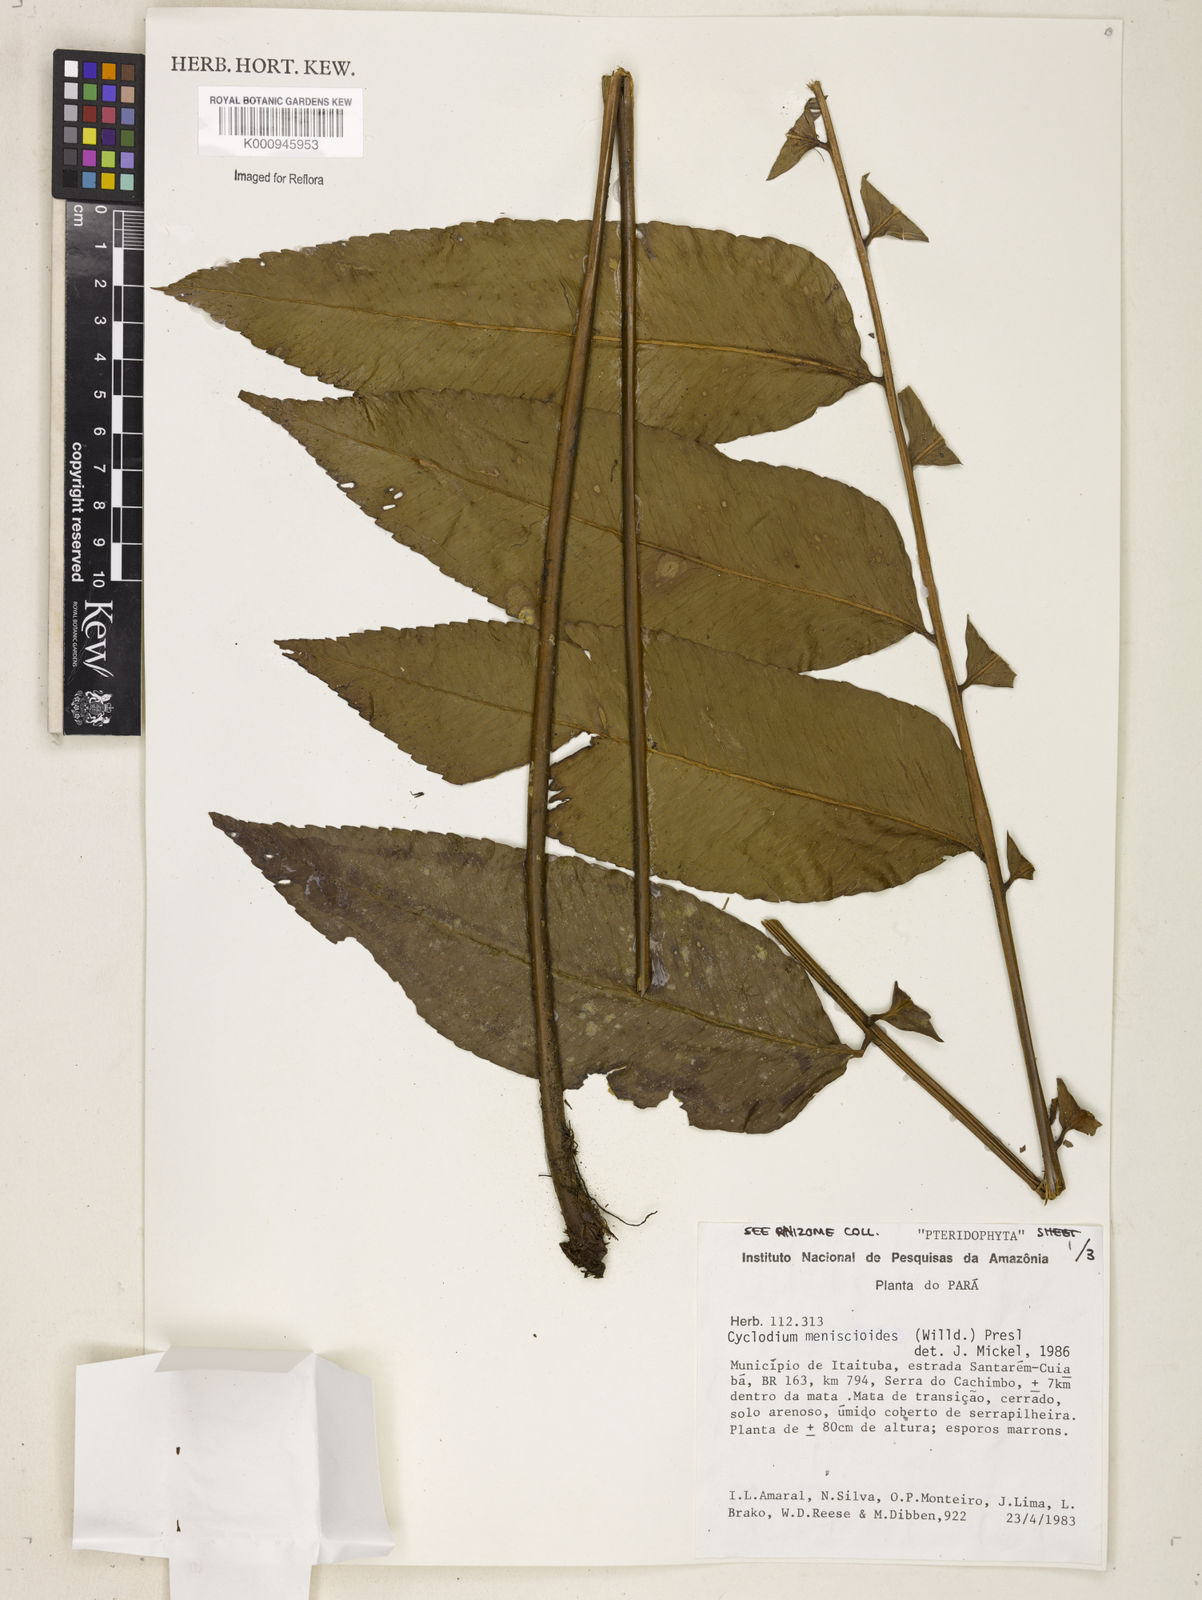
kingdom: Plantae
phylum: Tracheophyta
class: Polypodiopsida
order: Polypodiales
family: Dryopteridaceae
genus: Cyclodium
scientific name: Cyclodium meniscioides
